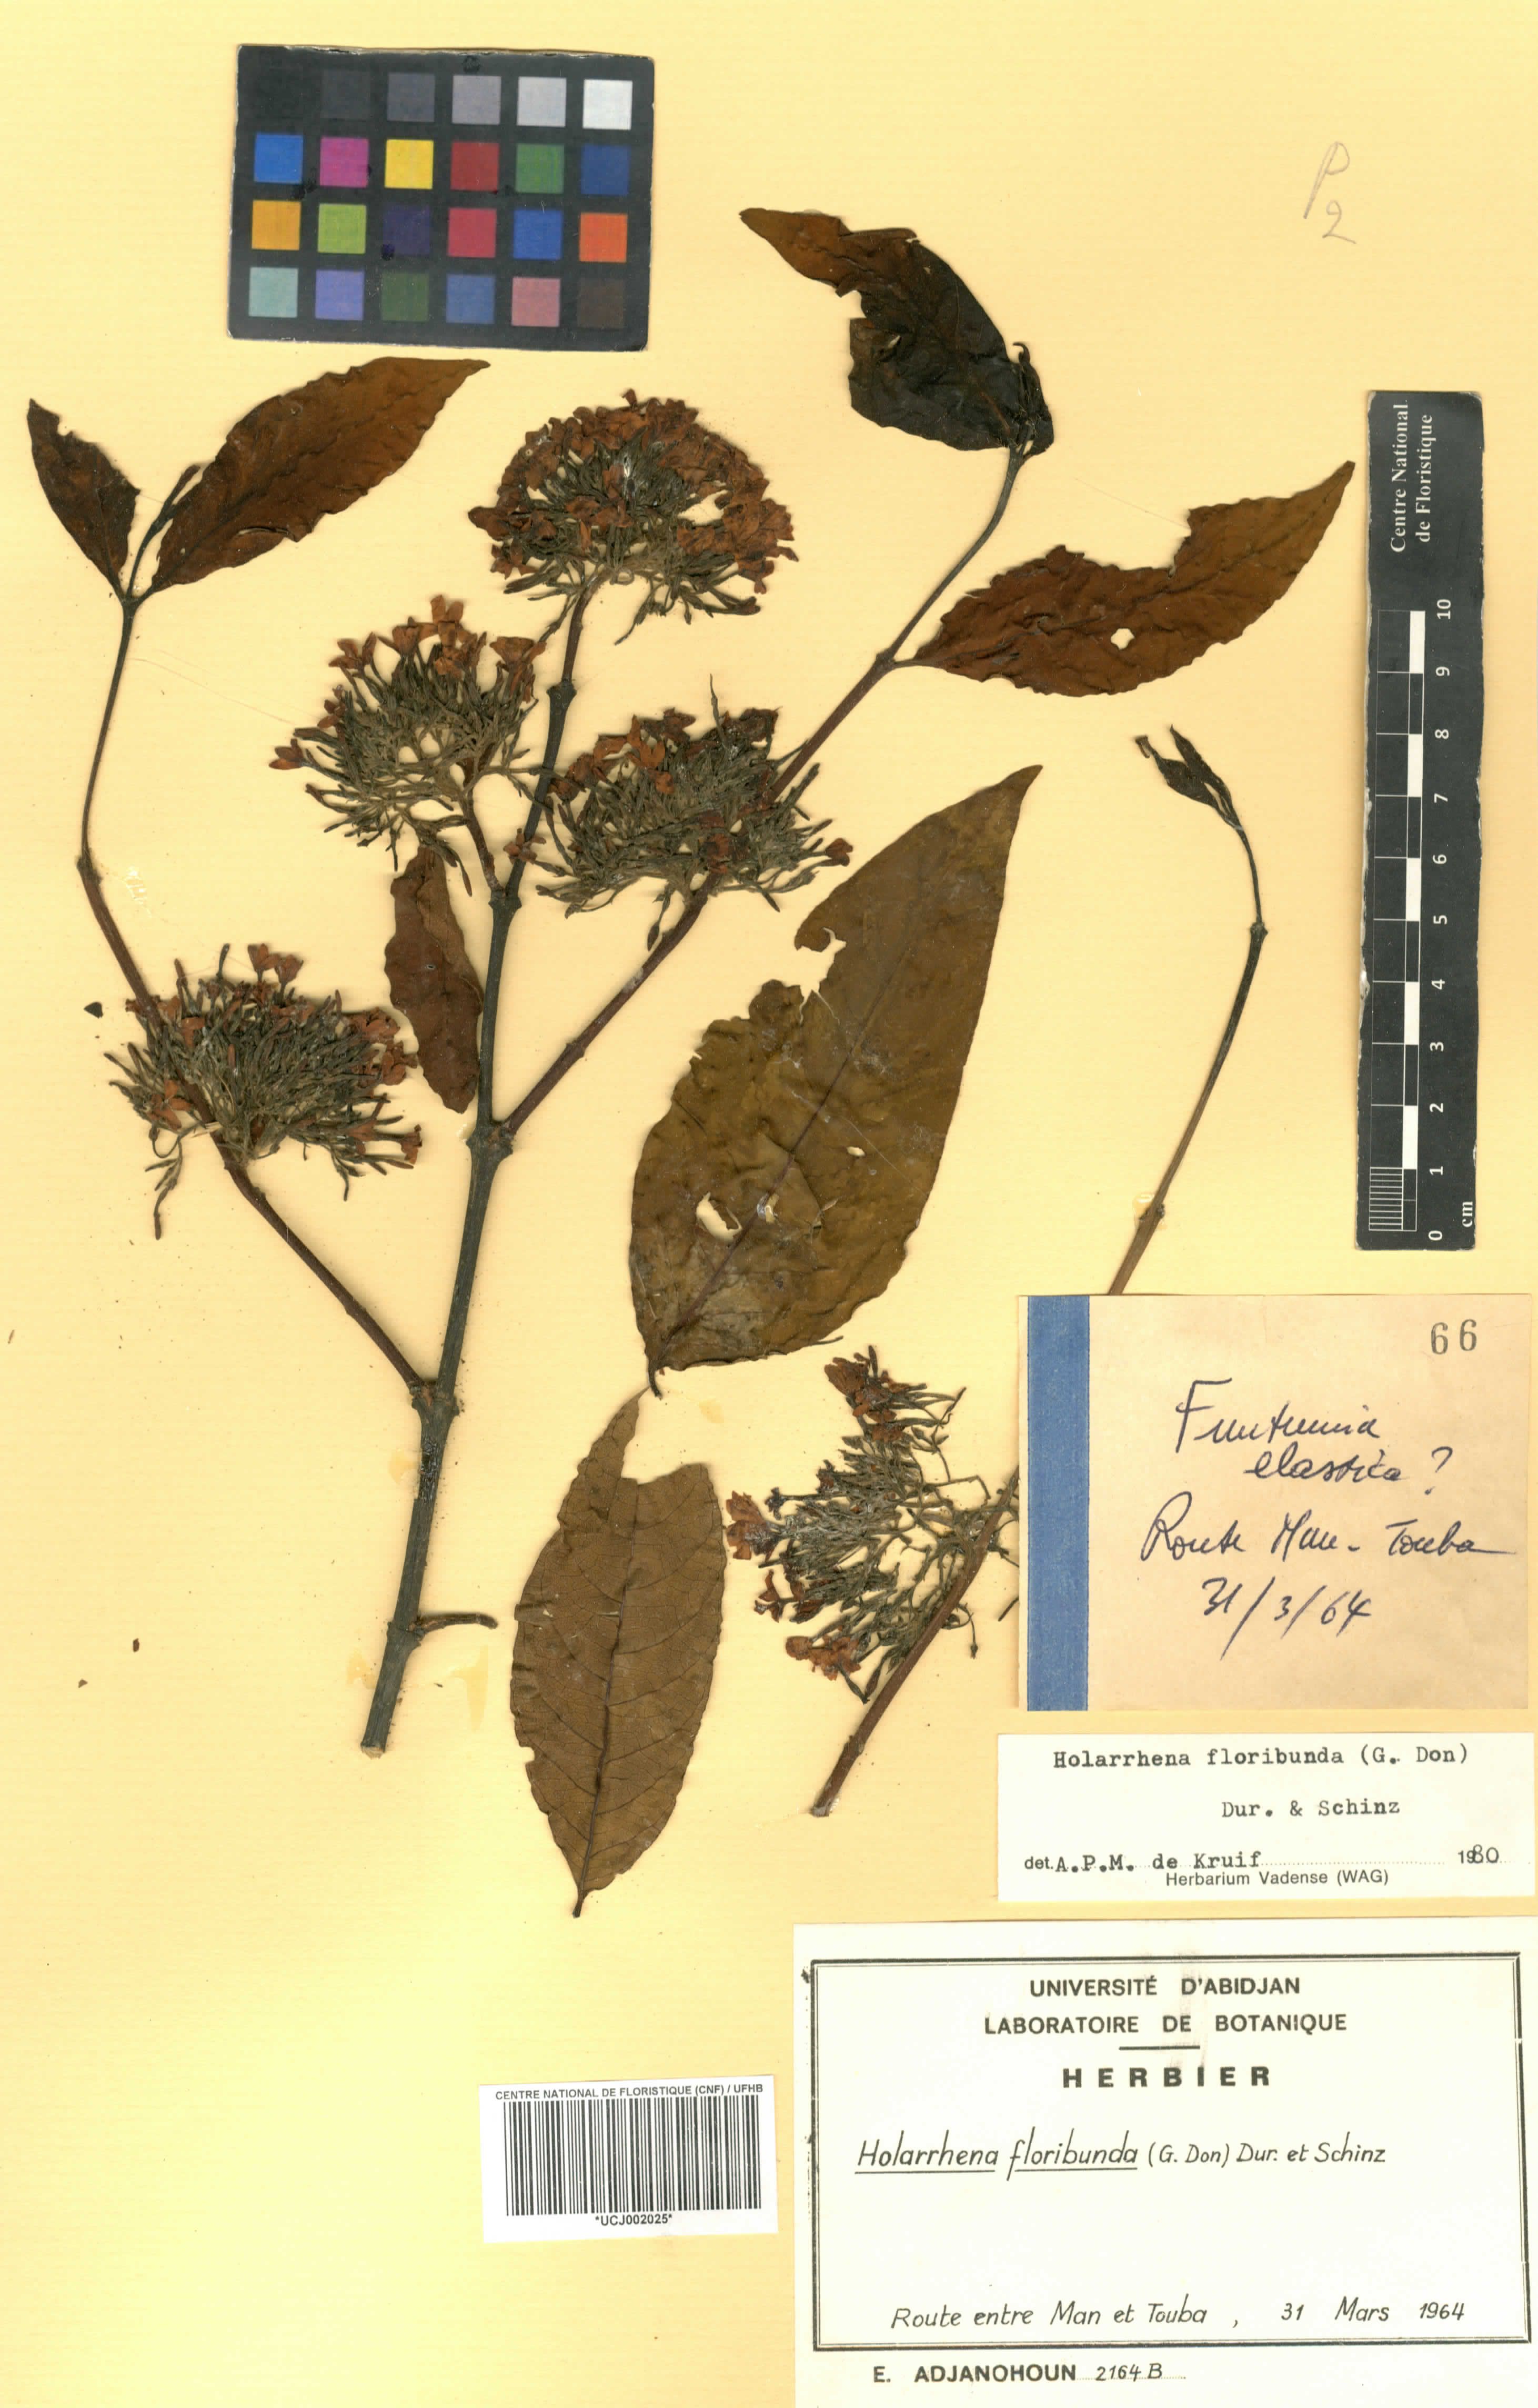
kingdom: Plantae
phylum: Tracheophyta
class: Magnoliopsida
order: Gentianales
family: Apocynaceae
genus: Holarrhena
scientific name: Holarrhena floribunda
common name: Kurchibark
